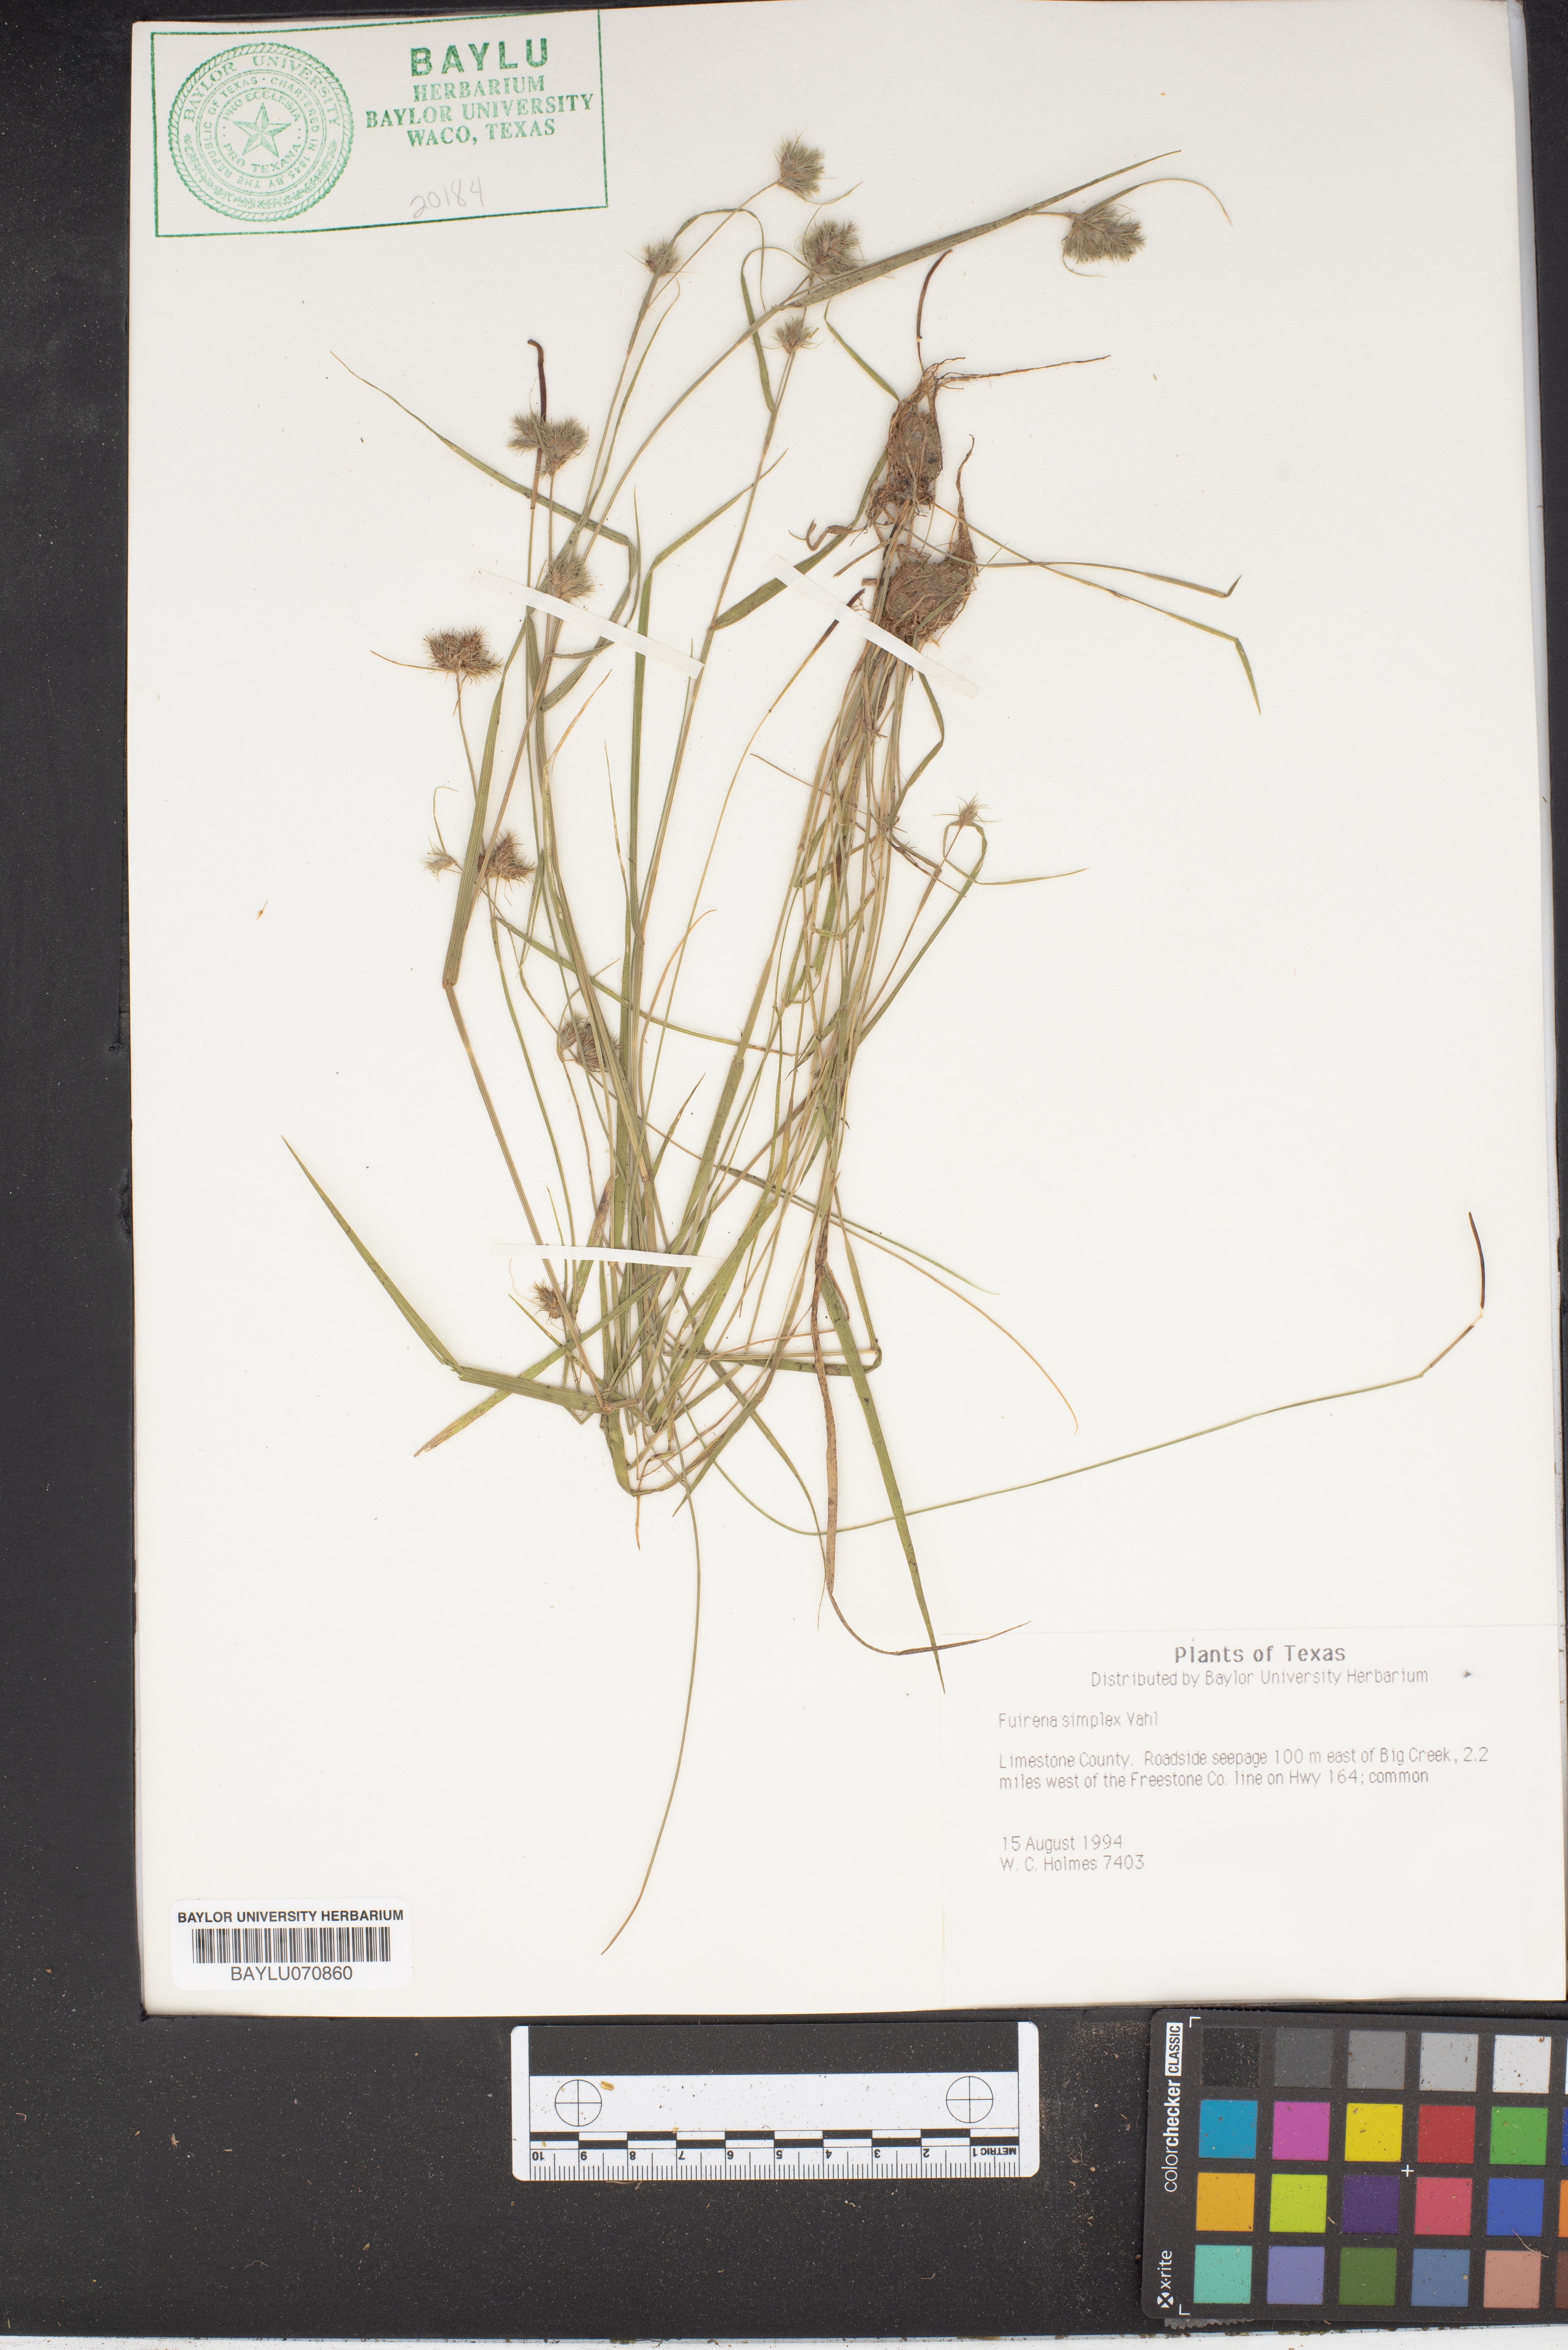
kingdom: Plantae
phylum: Tracheophyta
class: Liliopsida
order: Poales
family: Cyperaceae
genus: Fuirena
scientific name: Fuirena simplex
